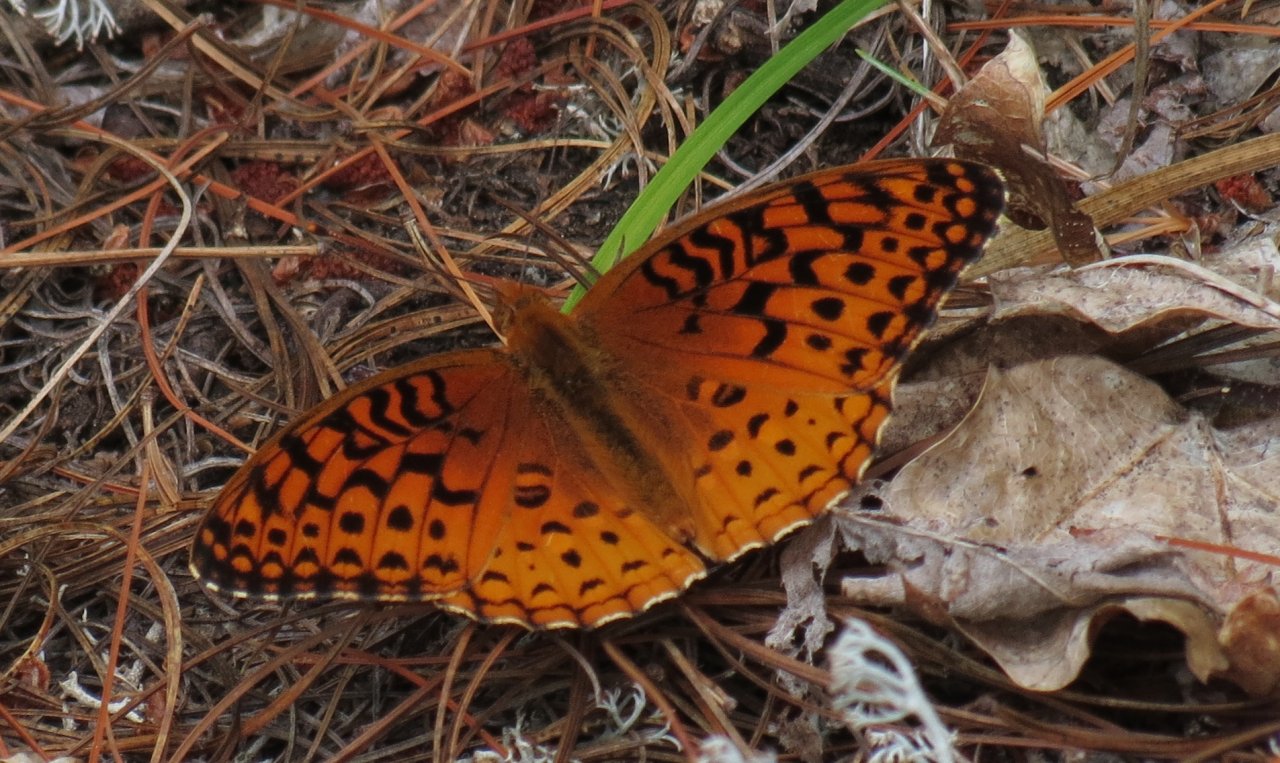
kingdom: Animalia
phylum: Arthropoda
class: Insecta
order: Lepidoptera
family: Nymphalidae
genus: Speyeria
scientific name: Speyeria aphrodite
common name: Aphrodite Fritillary
